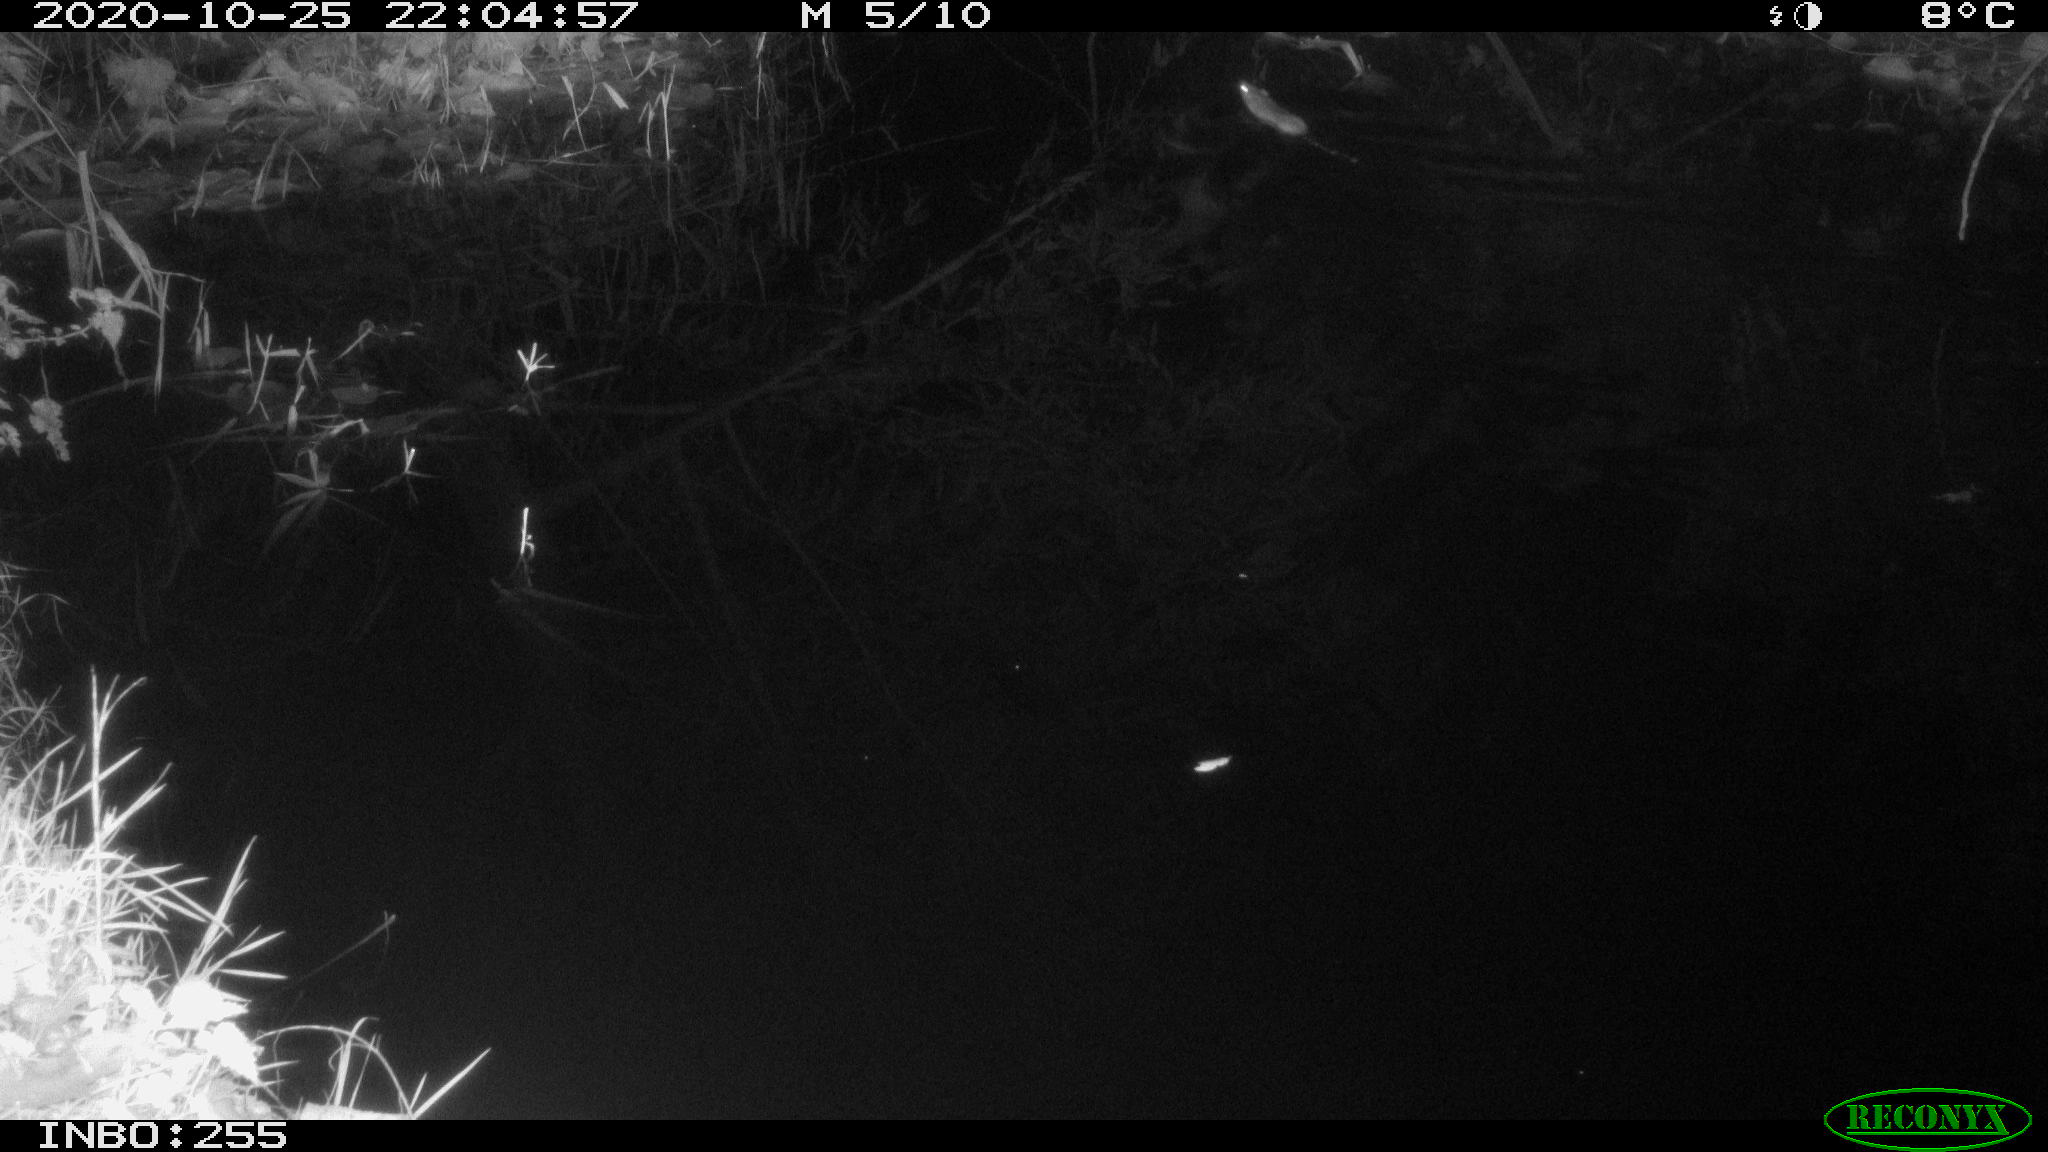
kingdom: Animalia
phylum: Chordata
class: Mammalia
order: Rodentia
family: Muridae
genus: Rattus
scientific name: Rattus norvegicus
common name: Brown rat
